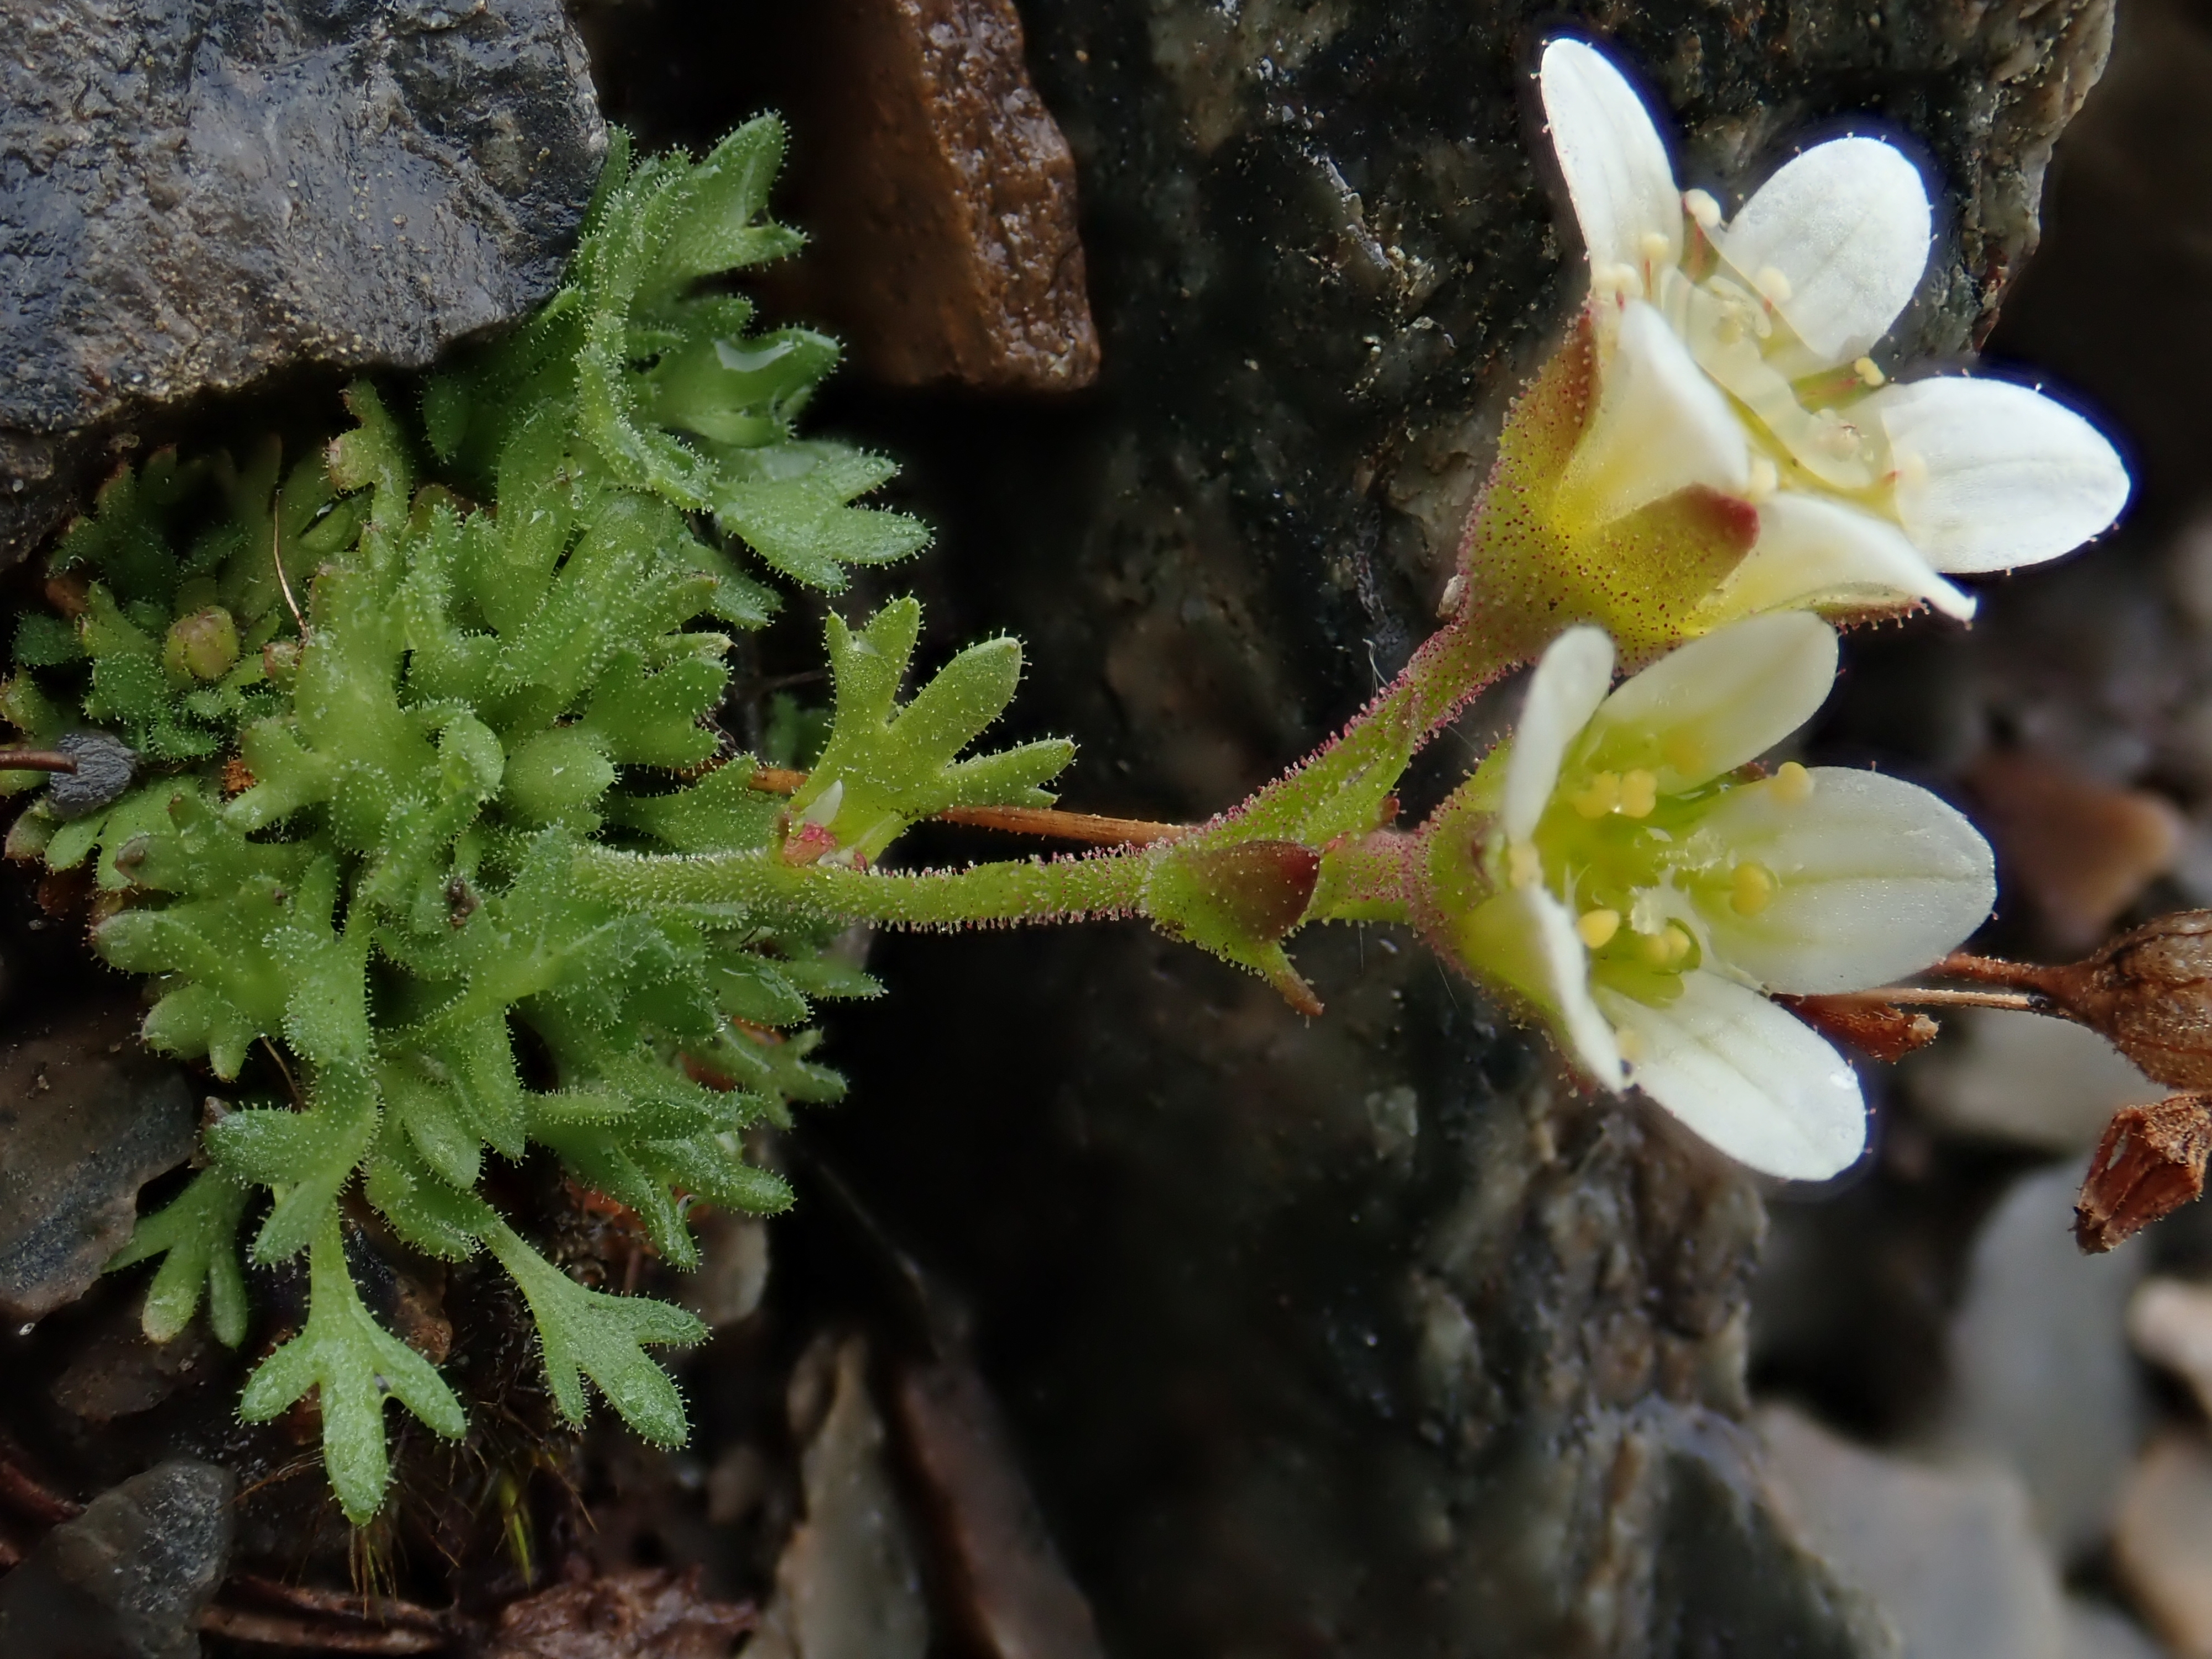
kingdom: Plantae
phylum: Tracheophyta
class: Magnoliopsida
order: Saxifragales
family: Saxifragaceae
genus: Saxifraga
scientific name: Saxifraga cespitosa
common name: Tufted saxifrage
